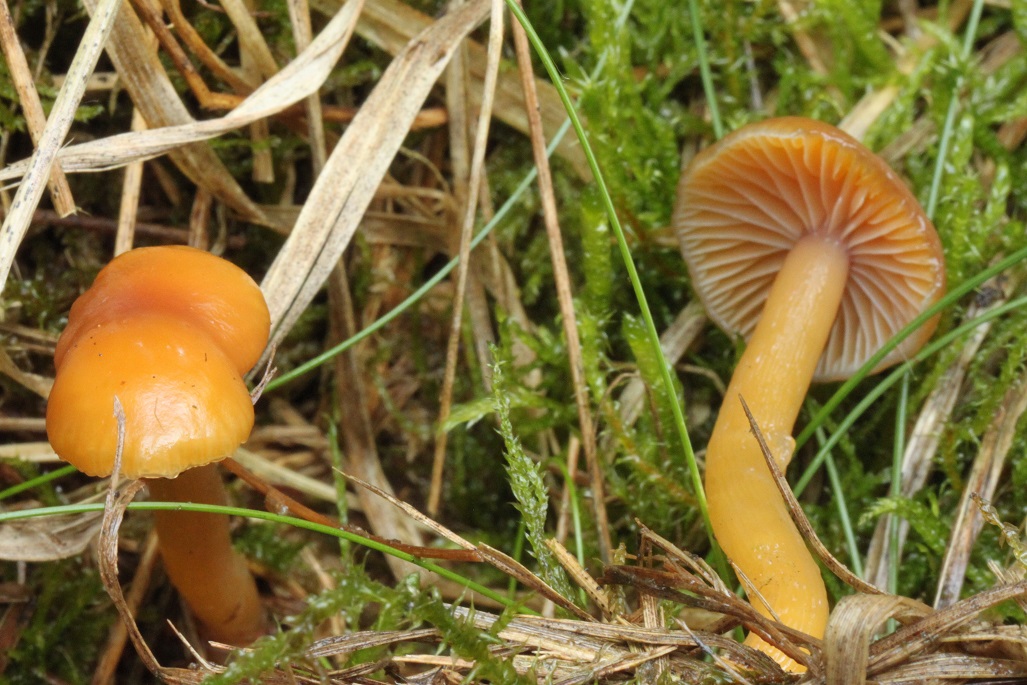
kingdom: Fungi
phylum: Basidiomycota
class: Agaricomycetes
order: Agaricales
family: Hygrophoraceae
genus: Gliophorus
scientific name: Gliophorus laetus
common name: brusk-vokshat
